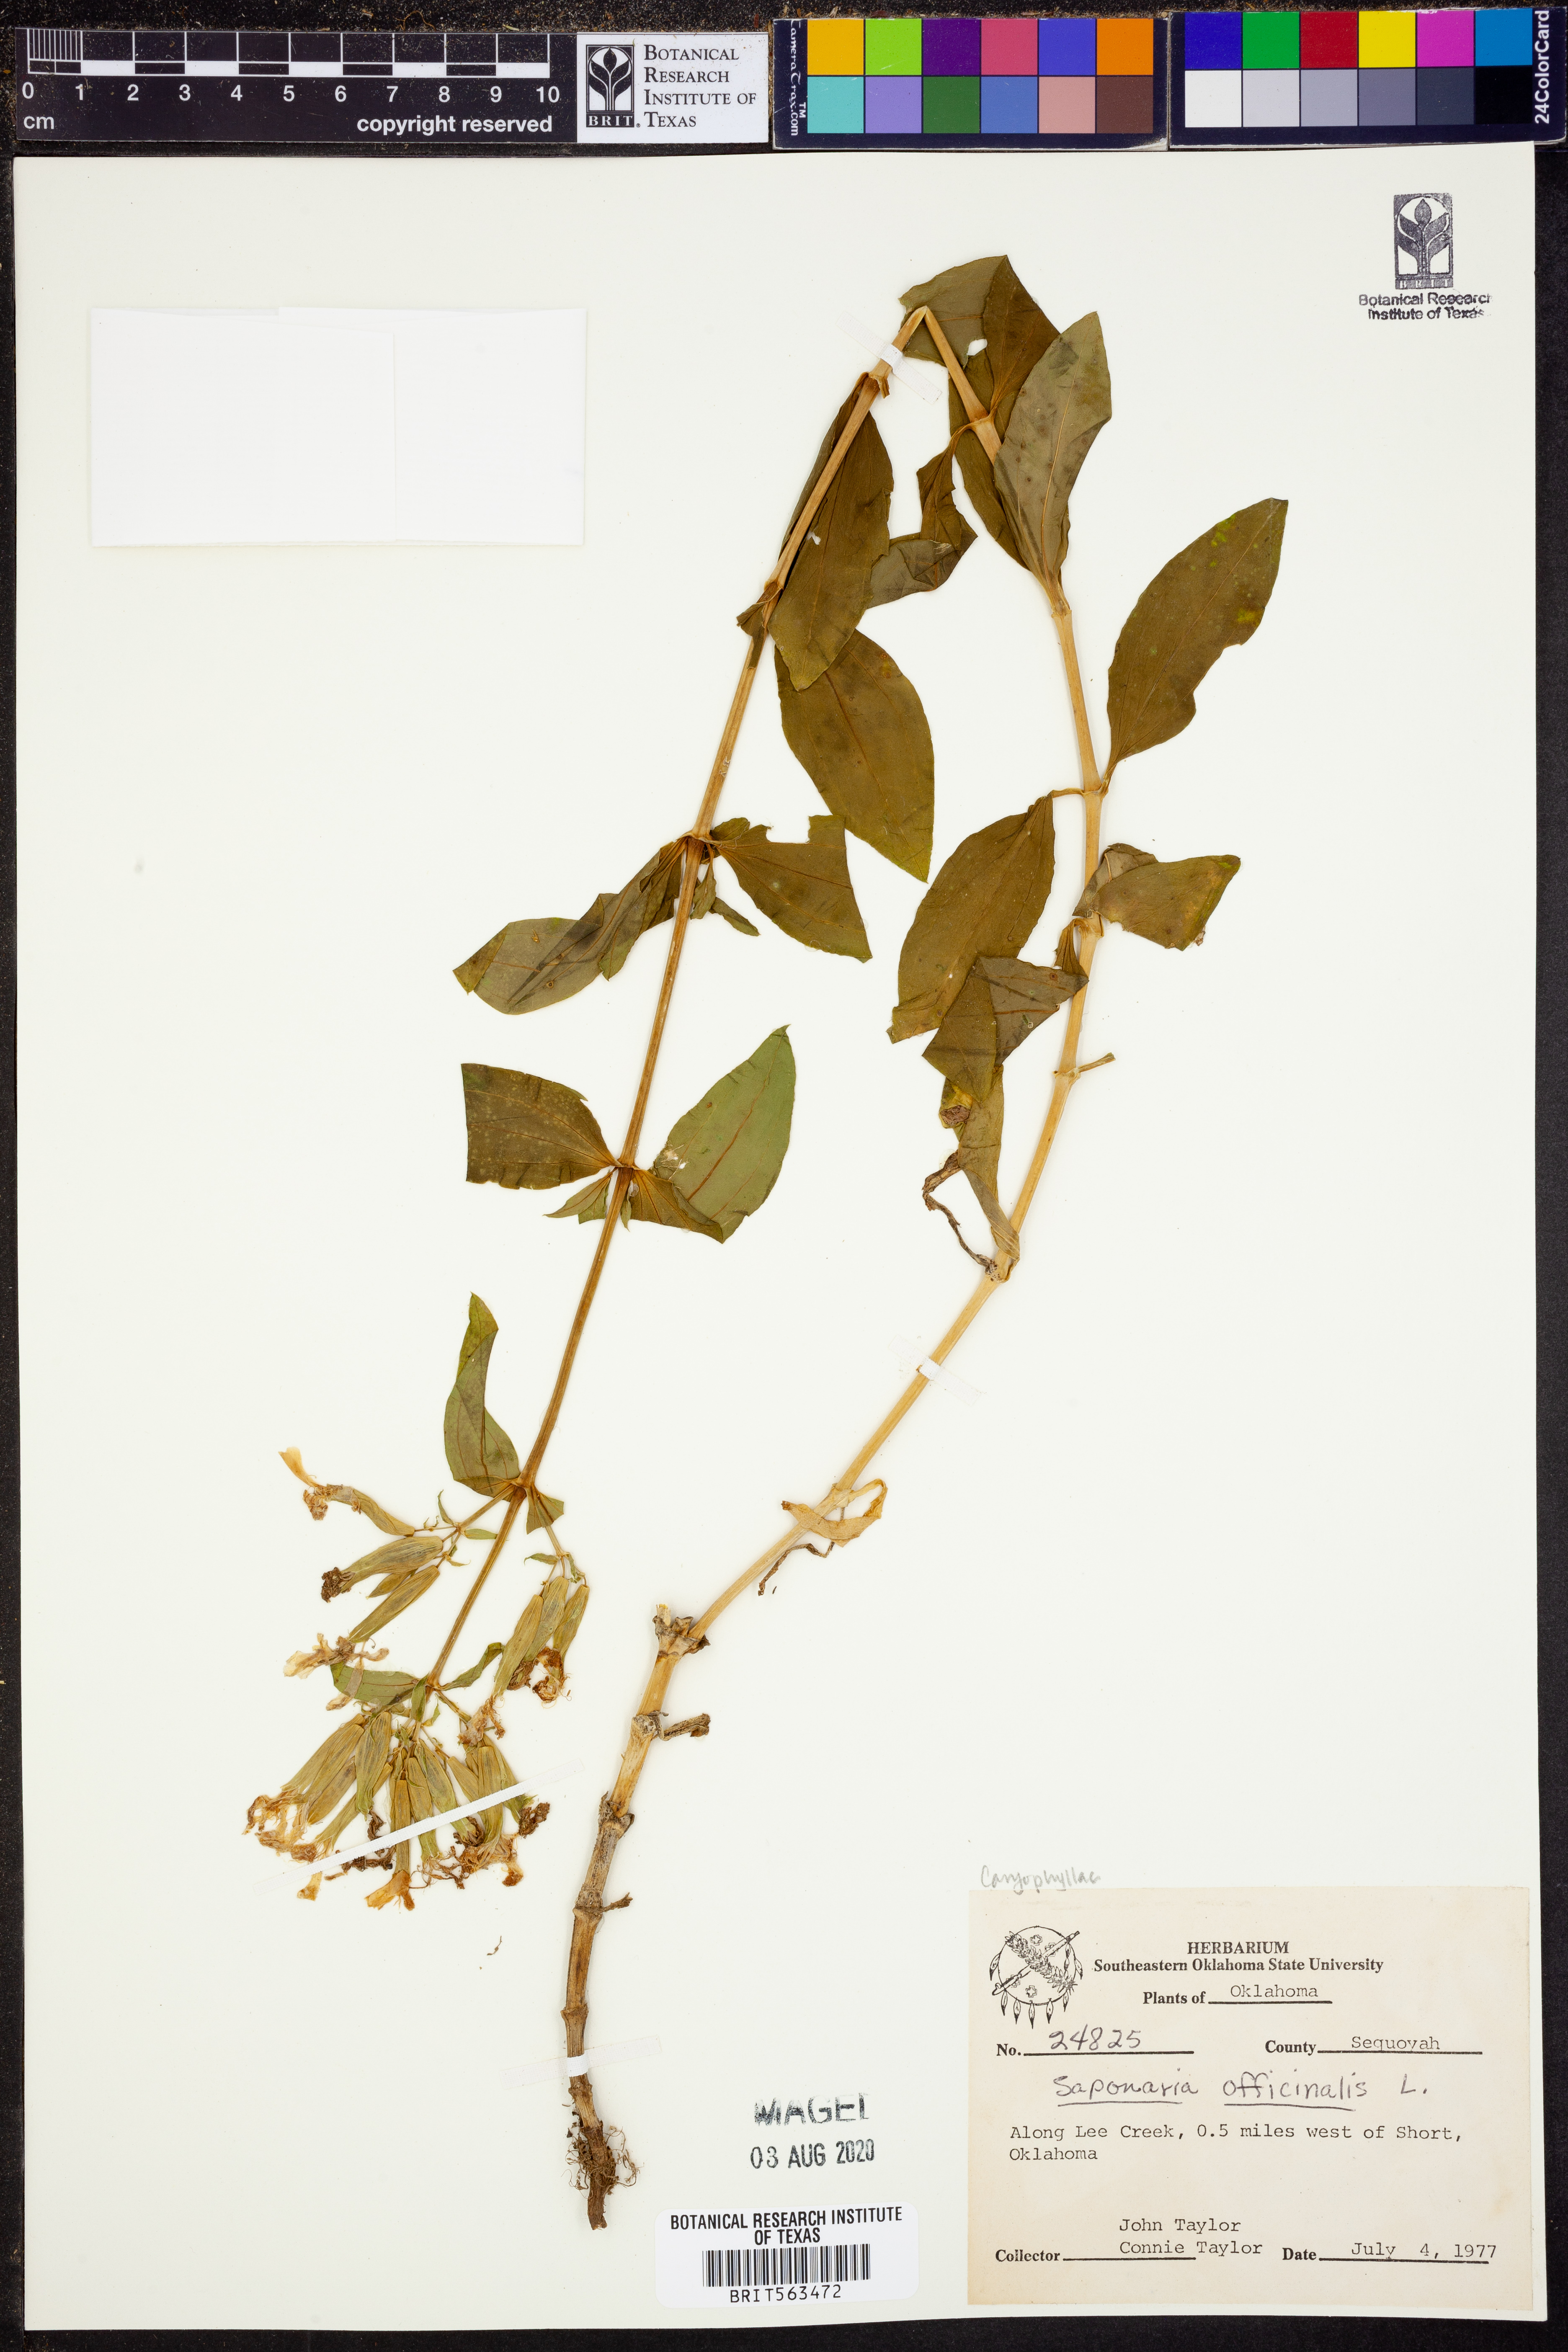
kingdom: Plantae
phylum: Tracheophyta
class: Magnoliopsida
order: Caryophyllales
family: Caryophyllaceae
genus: Saponaria
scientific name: Saponaria officinalis
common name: Soapwort
